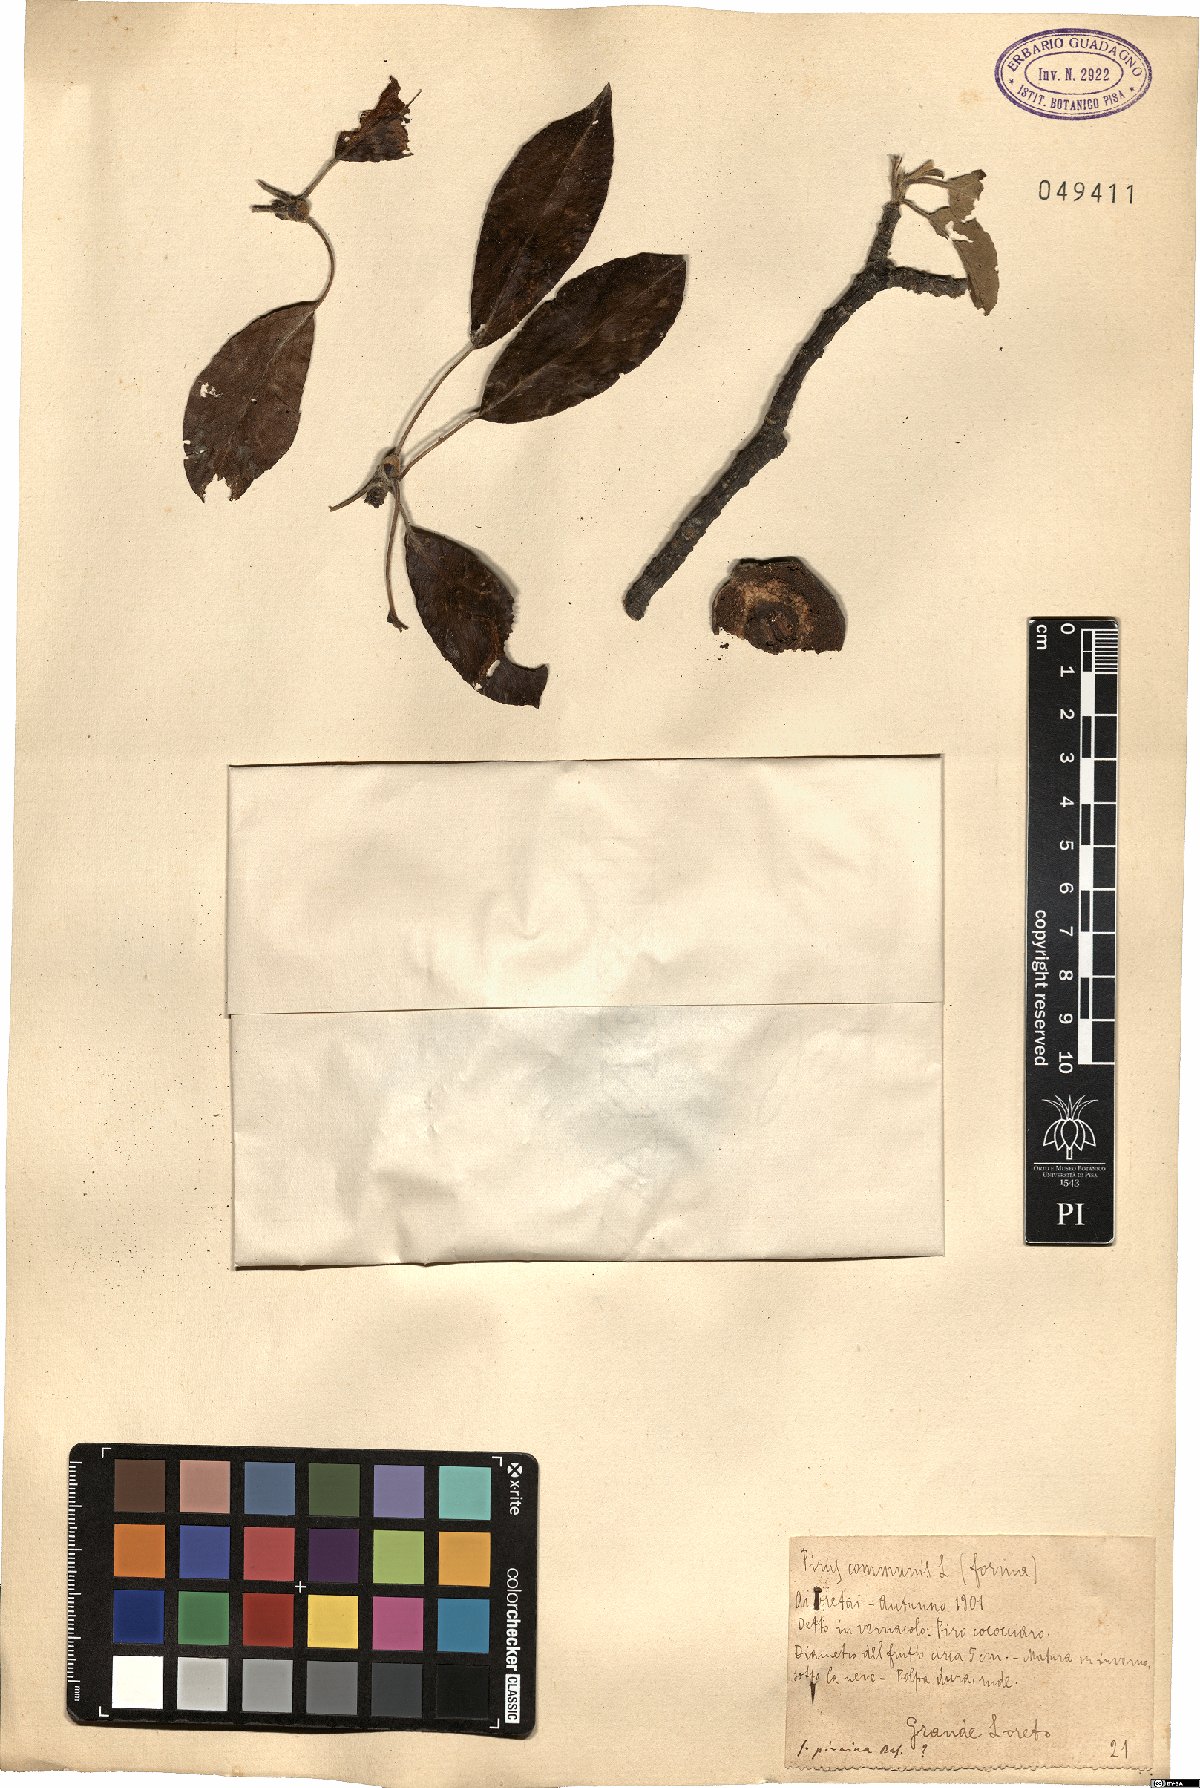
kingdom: Plantae
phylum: Tracheophyta
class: Magnoliopsida
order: Rosales
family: Rosaceae
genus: Pyrus
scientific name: Pyrus communis
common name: Pear
